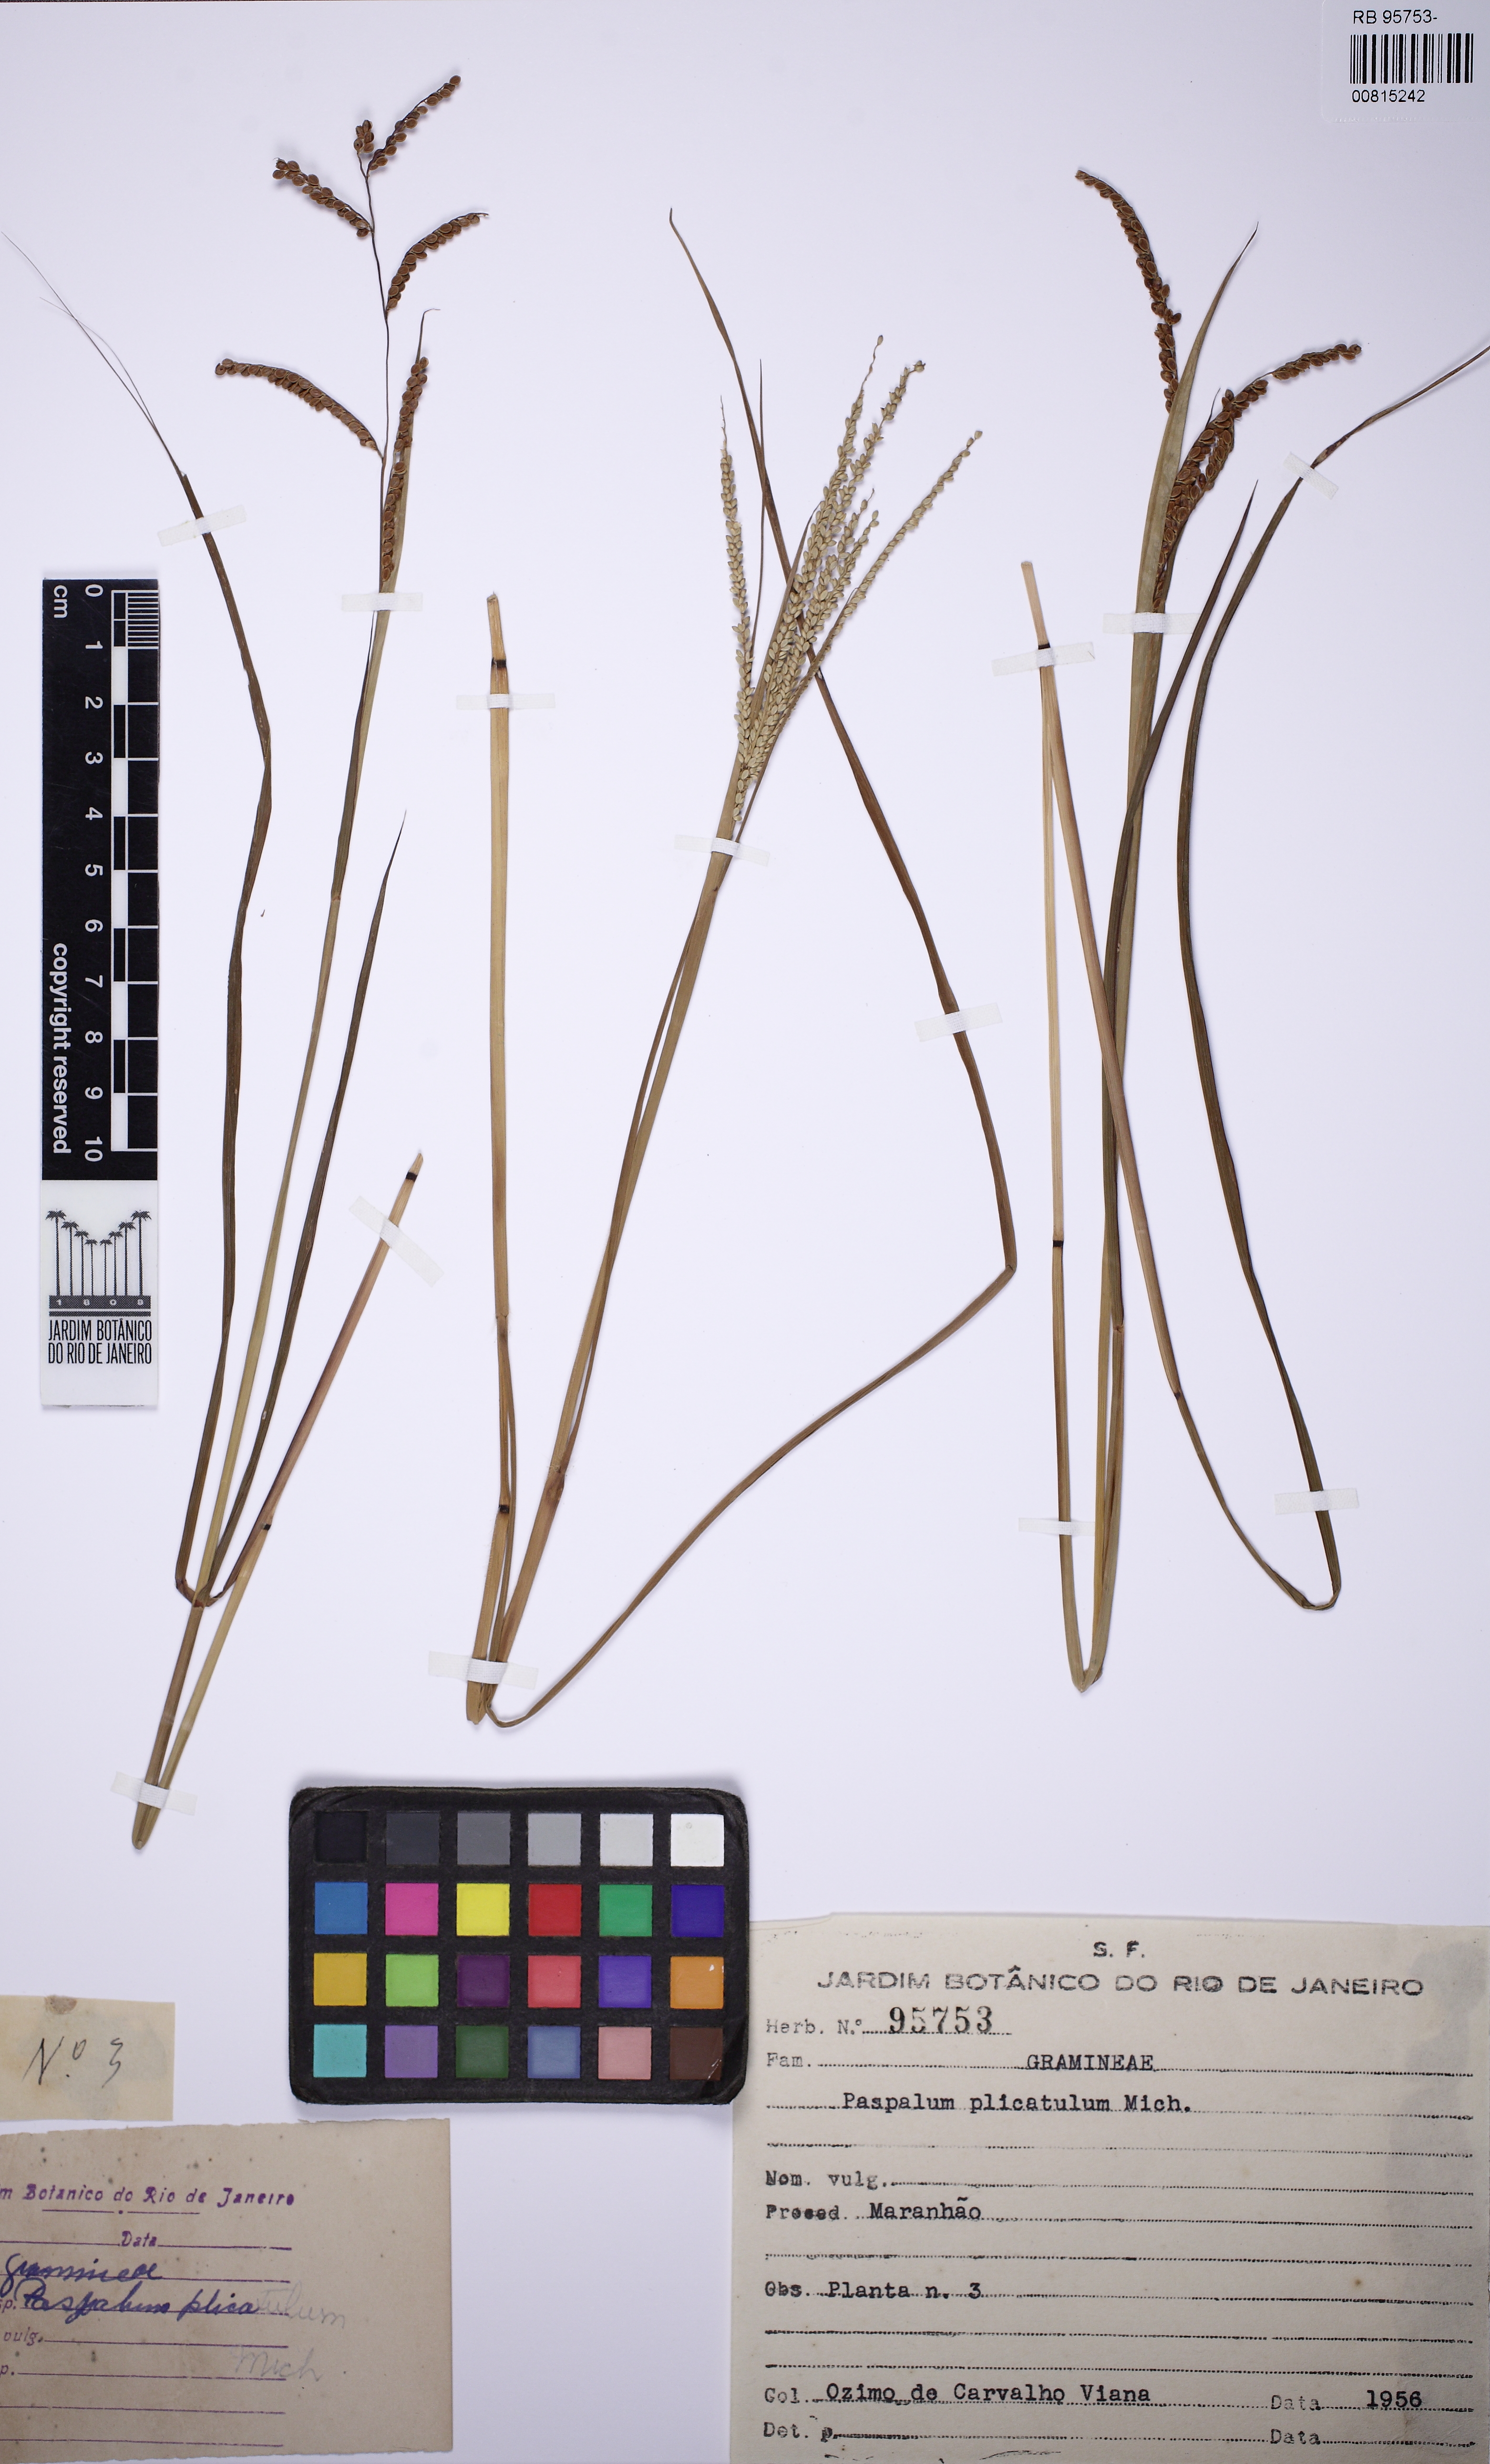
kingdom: Plantae
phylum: Tracheophyta
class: Liliopsida
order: Poales
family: Poaceae
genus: Paspalum
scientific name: Paspalum plicatulum
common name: Top paspalum
